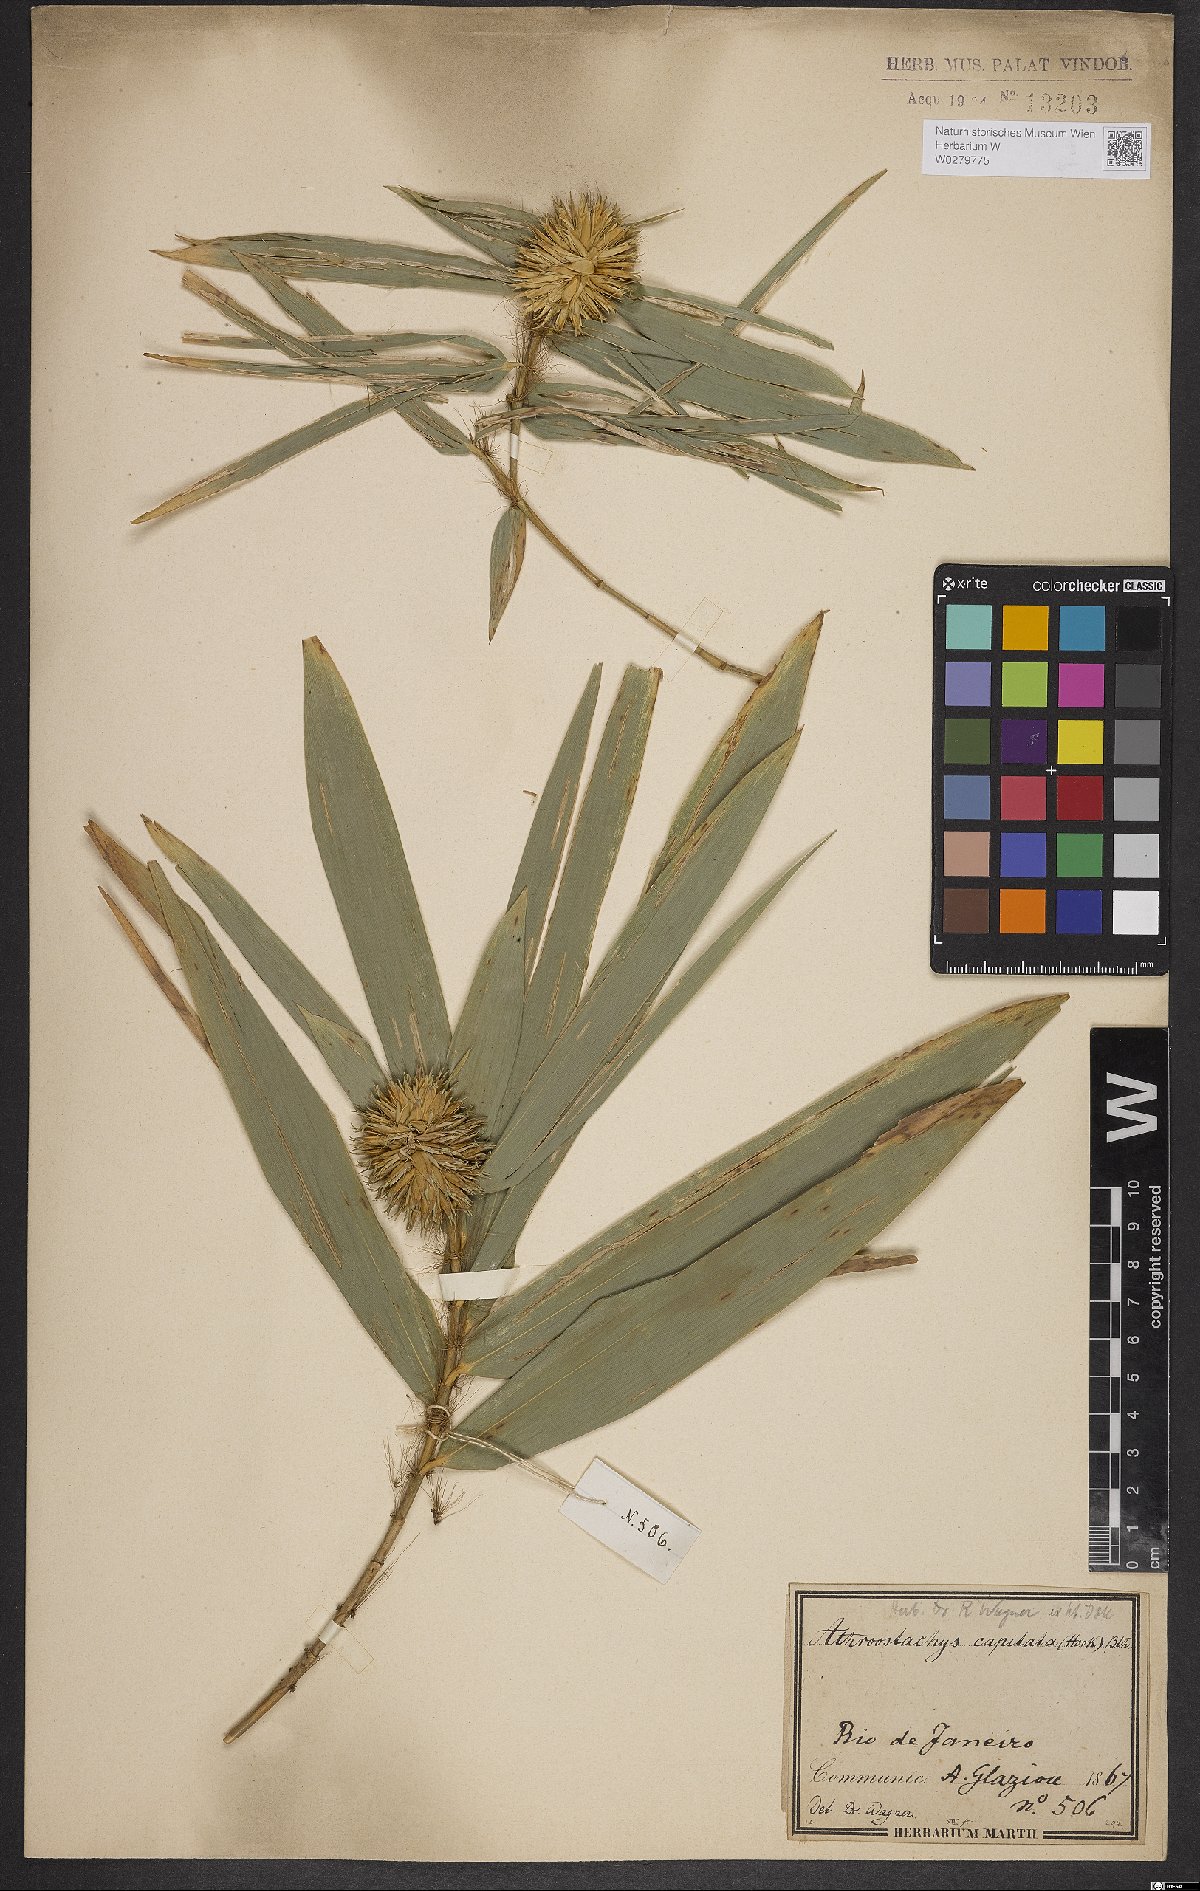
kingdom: Plantae
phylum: Tracheophyta
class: Liliopsida
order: Poales
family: Poaceae
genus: Athroostachys
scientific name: Athroostachys capitata
